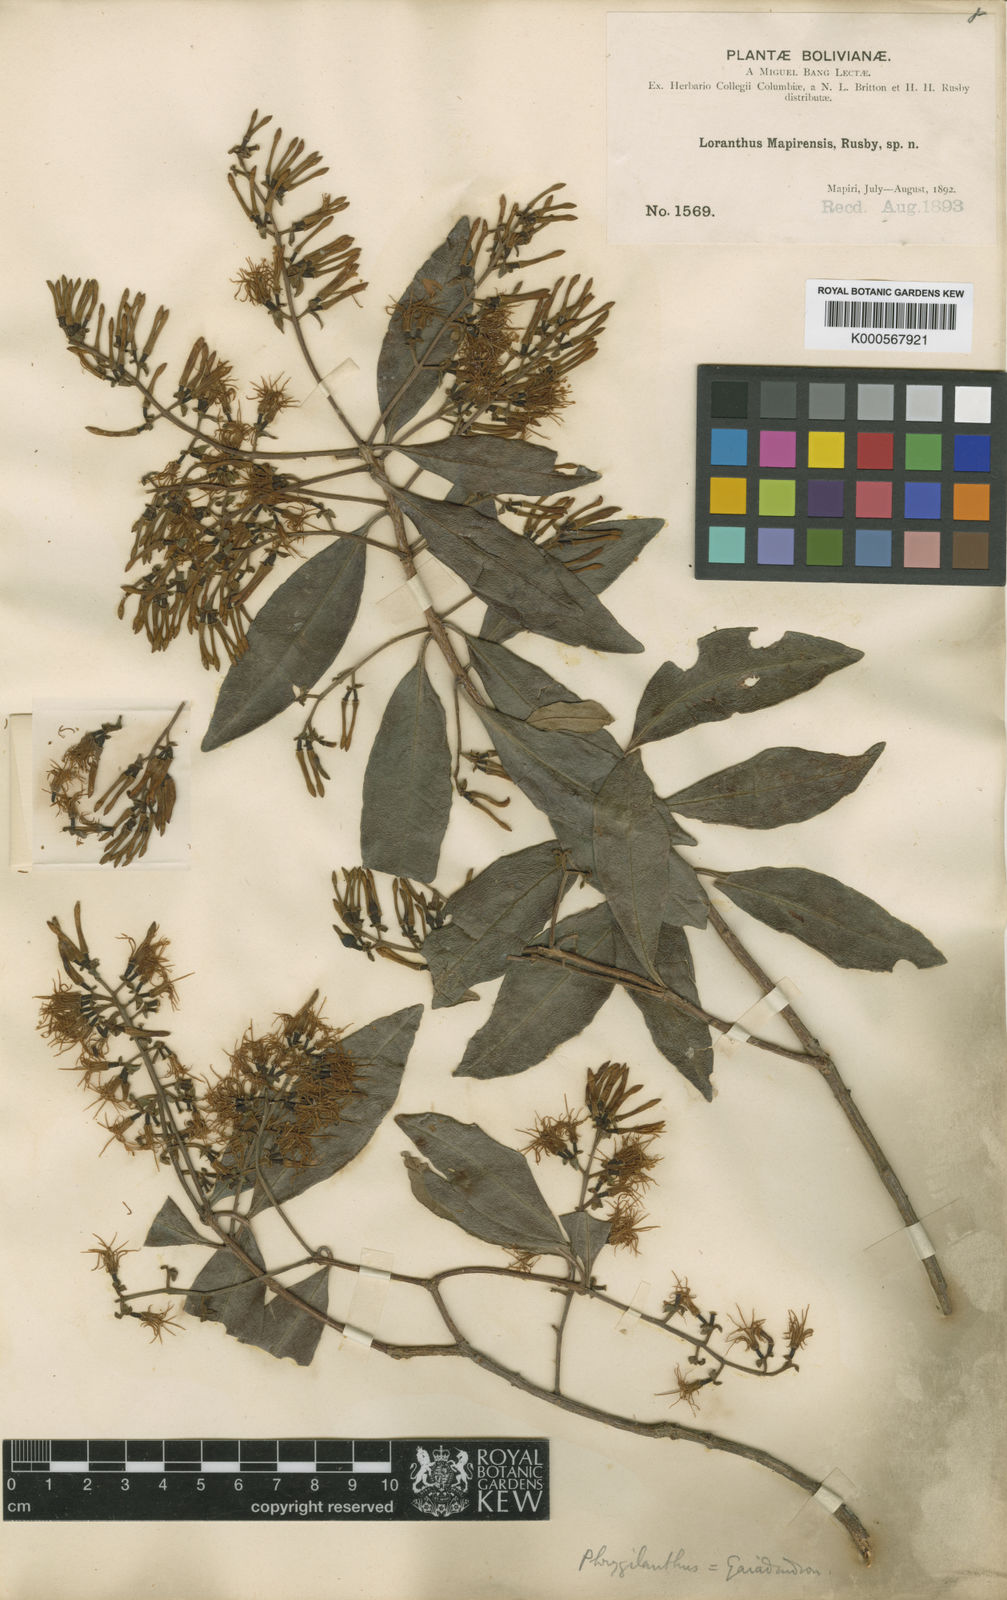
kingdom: Plantae
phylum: Tracheophyta
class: Magnoliopsida
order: Santalales
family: Loranthaceae
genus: Gaiadendron
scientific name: Gaiadendron
